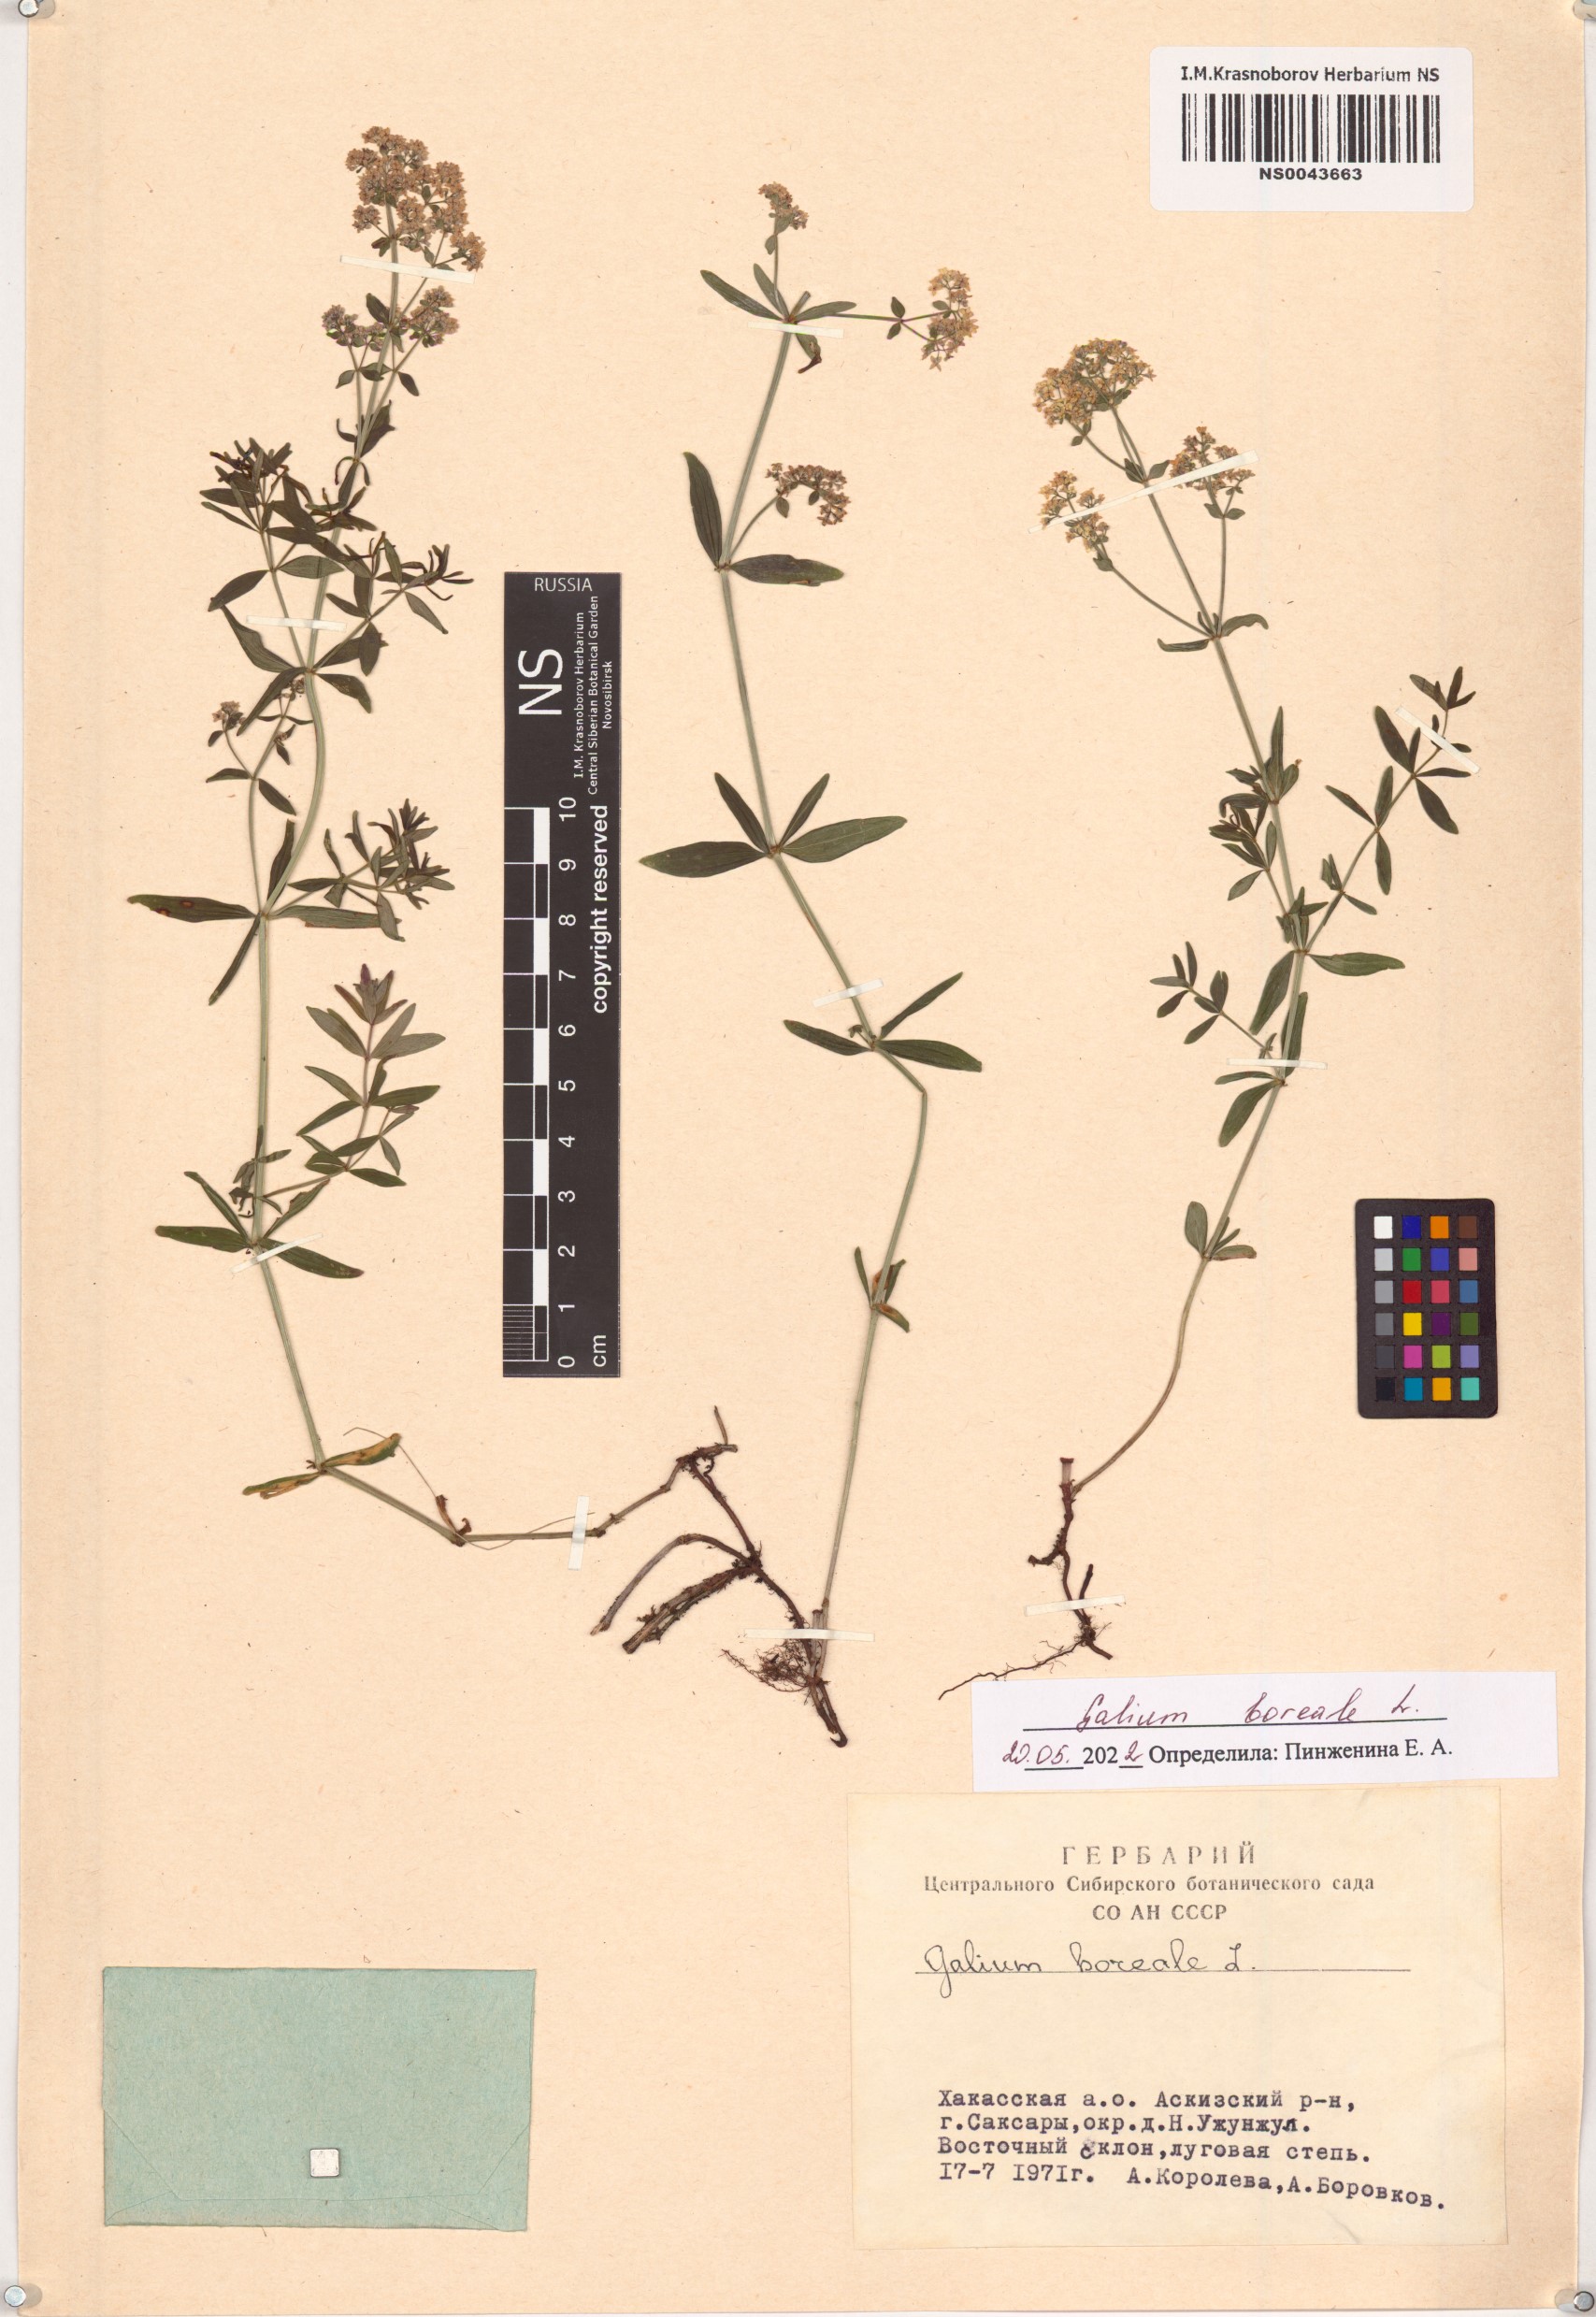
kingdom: Plantae
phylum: Tracheophyta
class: Magnoliopsida
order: Gentianales
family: Rubiaceae
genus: Galium
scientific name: Galium boreale
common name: Northern bedstraw
